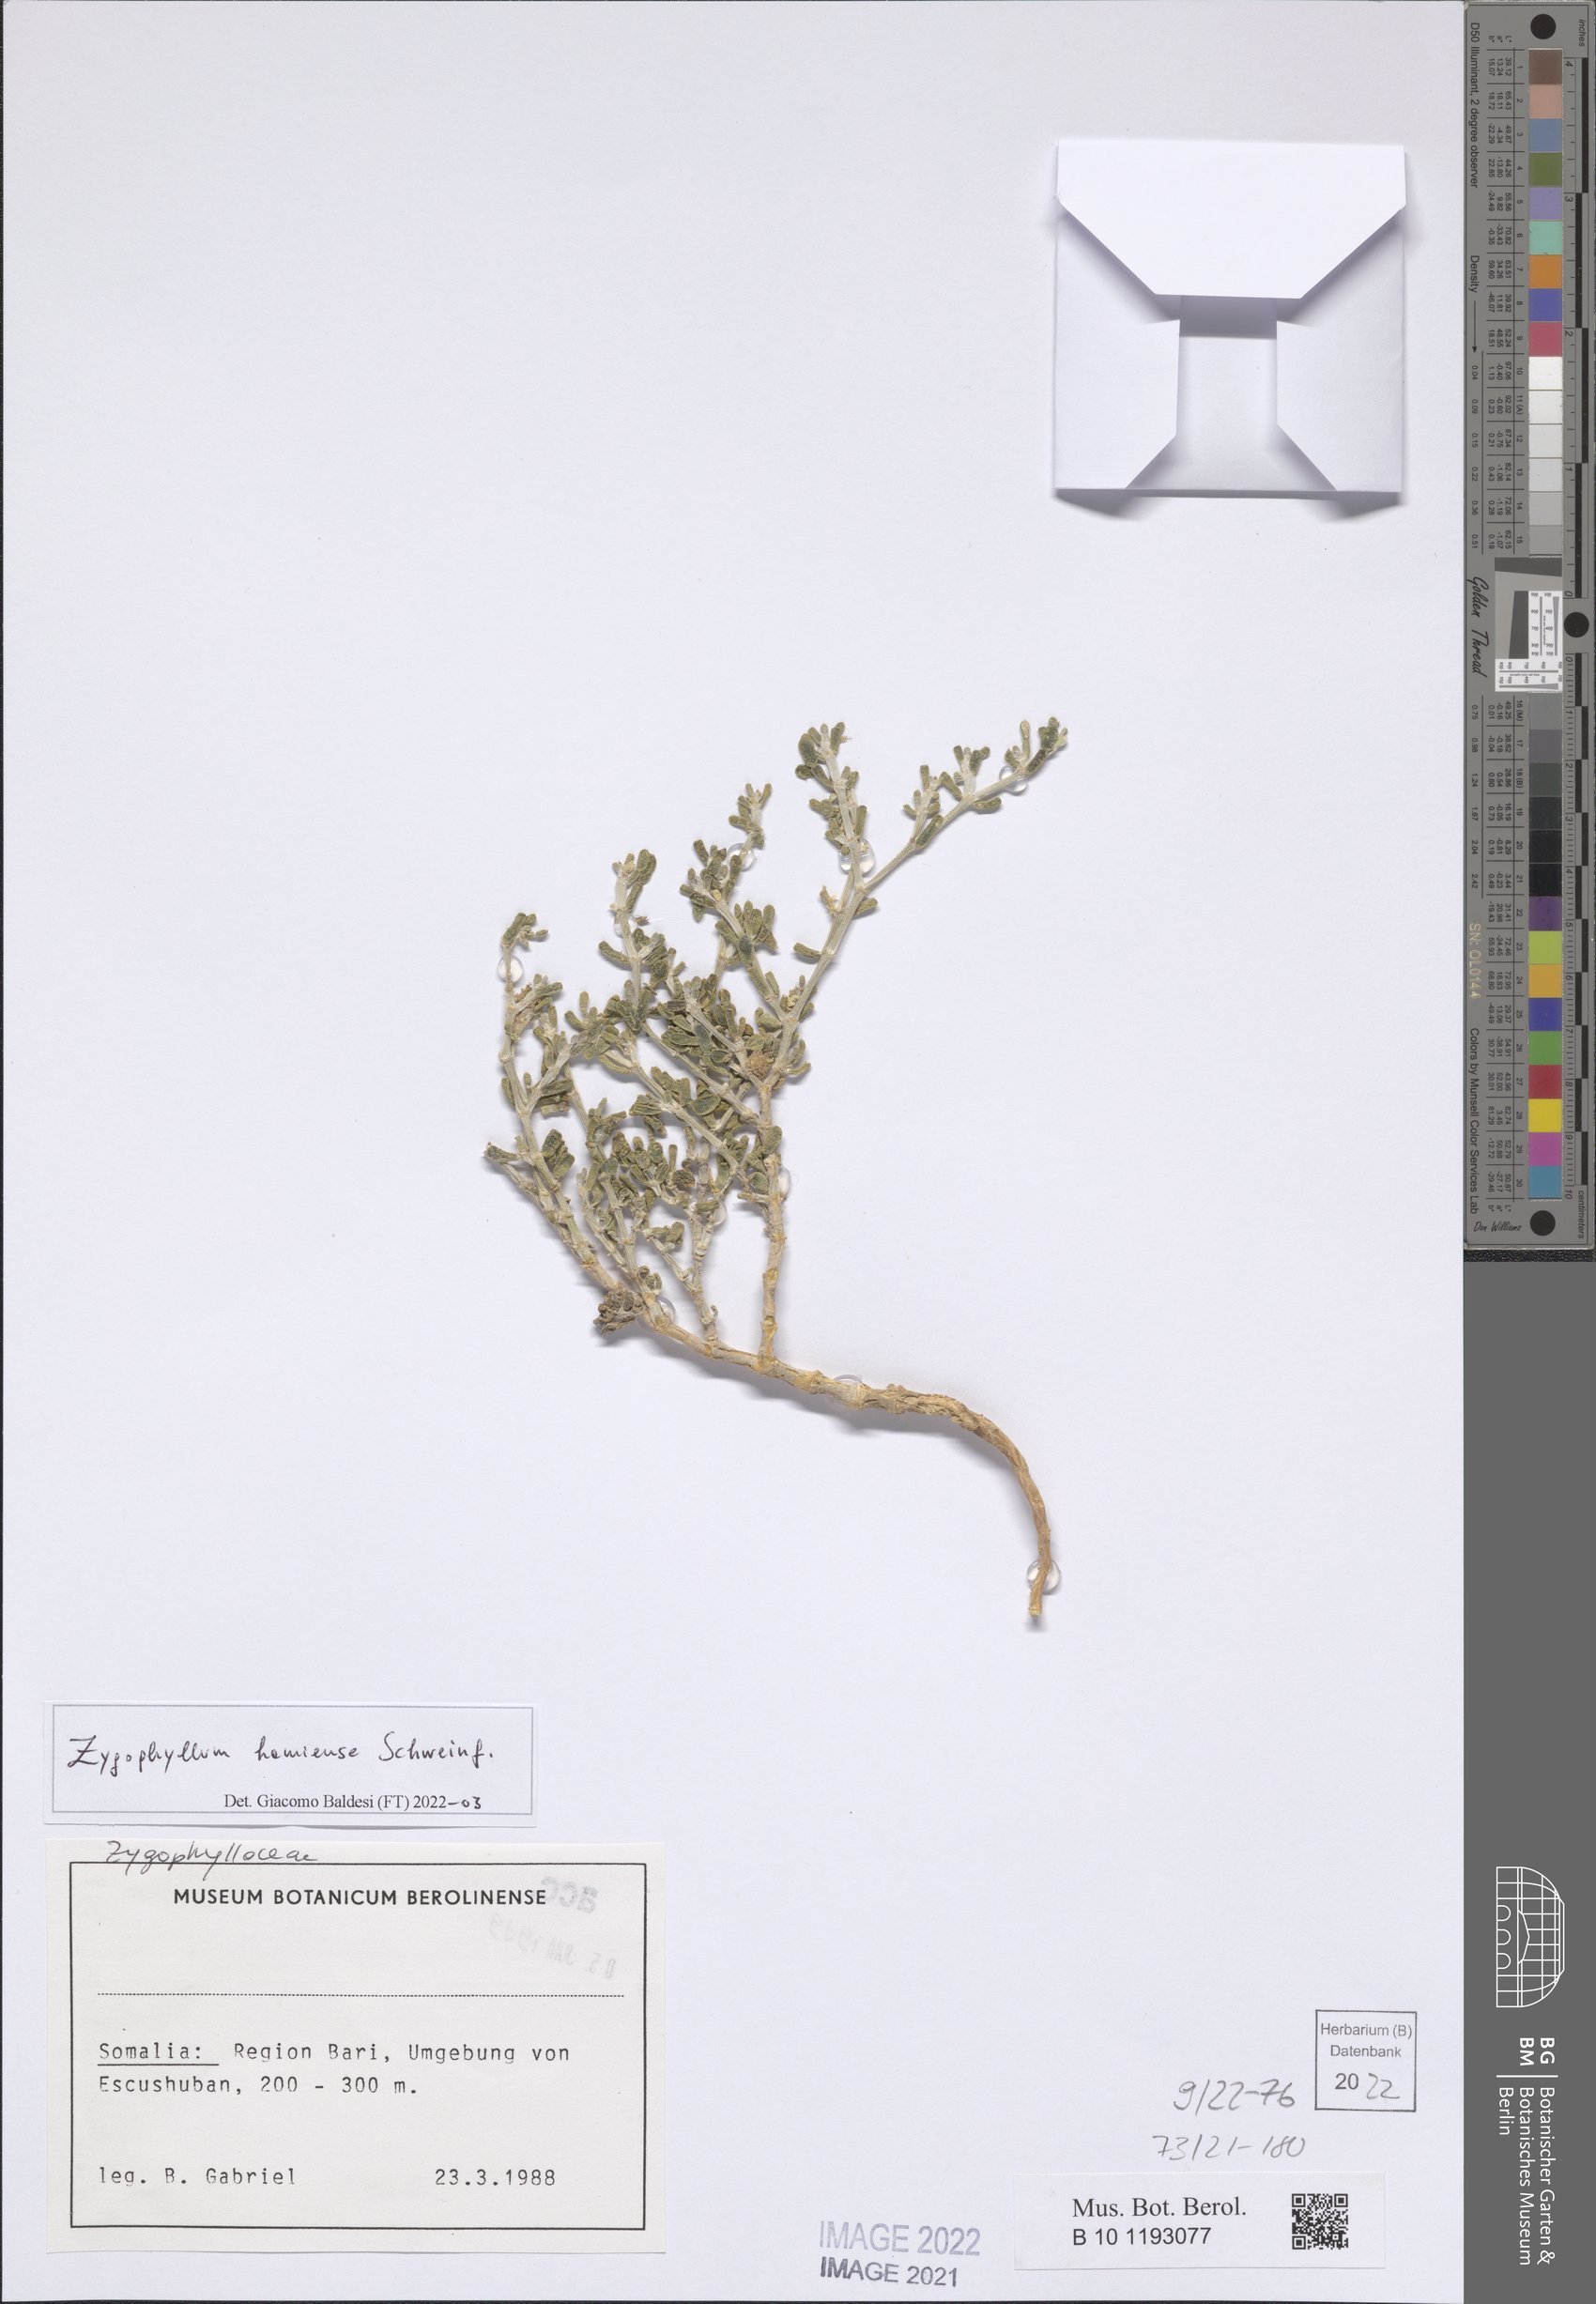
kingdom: Plantae
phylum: Tracheophyta
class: Magnoliopsida
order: Zygophyllales
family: Zygophyllaceae
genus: Tetraena
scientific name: Tetraena hamiensis
